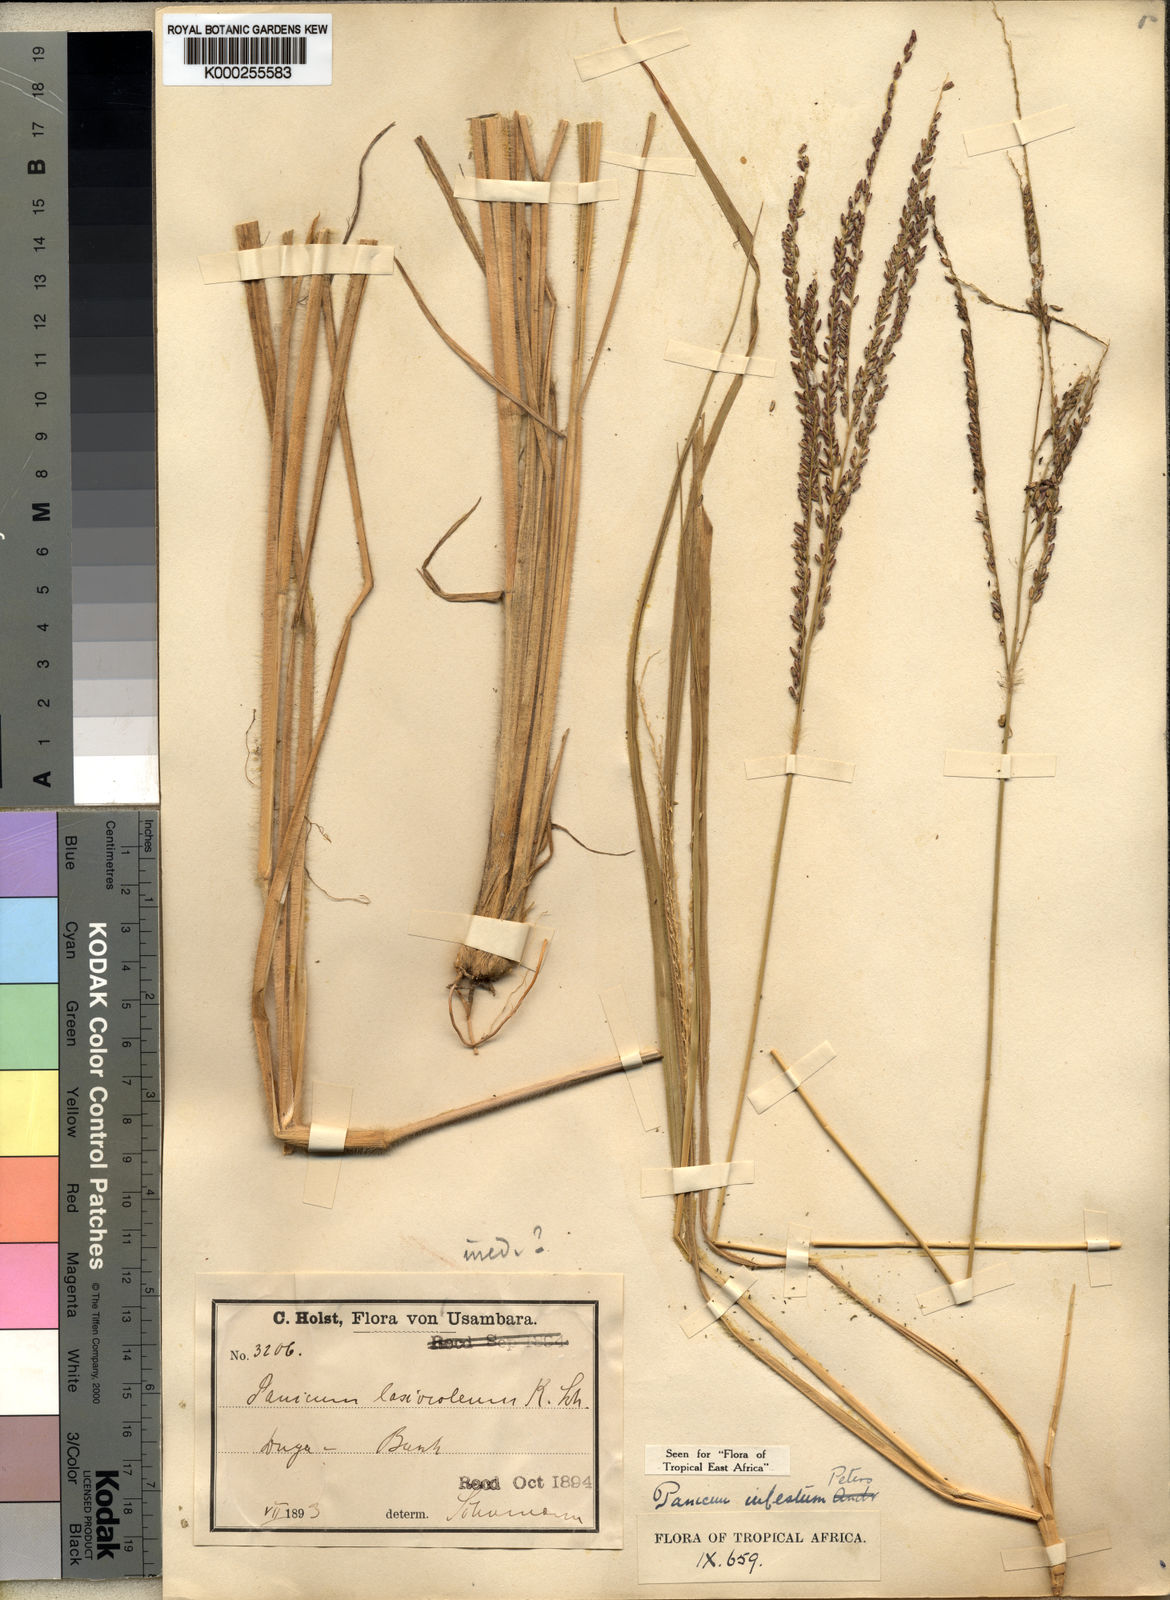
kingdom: Plantae
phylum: Tracheophyta
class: Liliopsida
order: Poales
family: Poaceae
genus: Panicum
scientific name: Panicum
